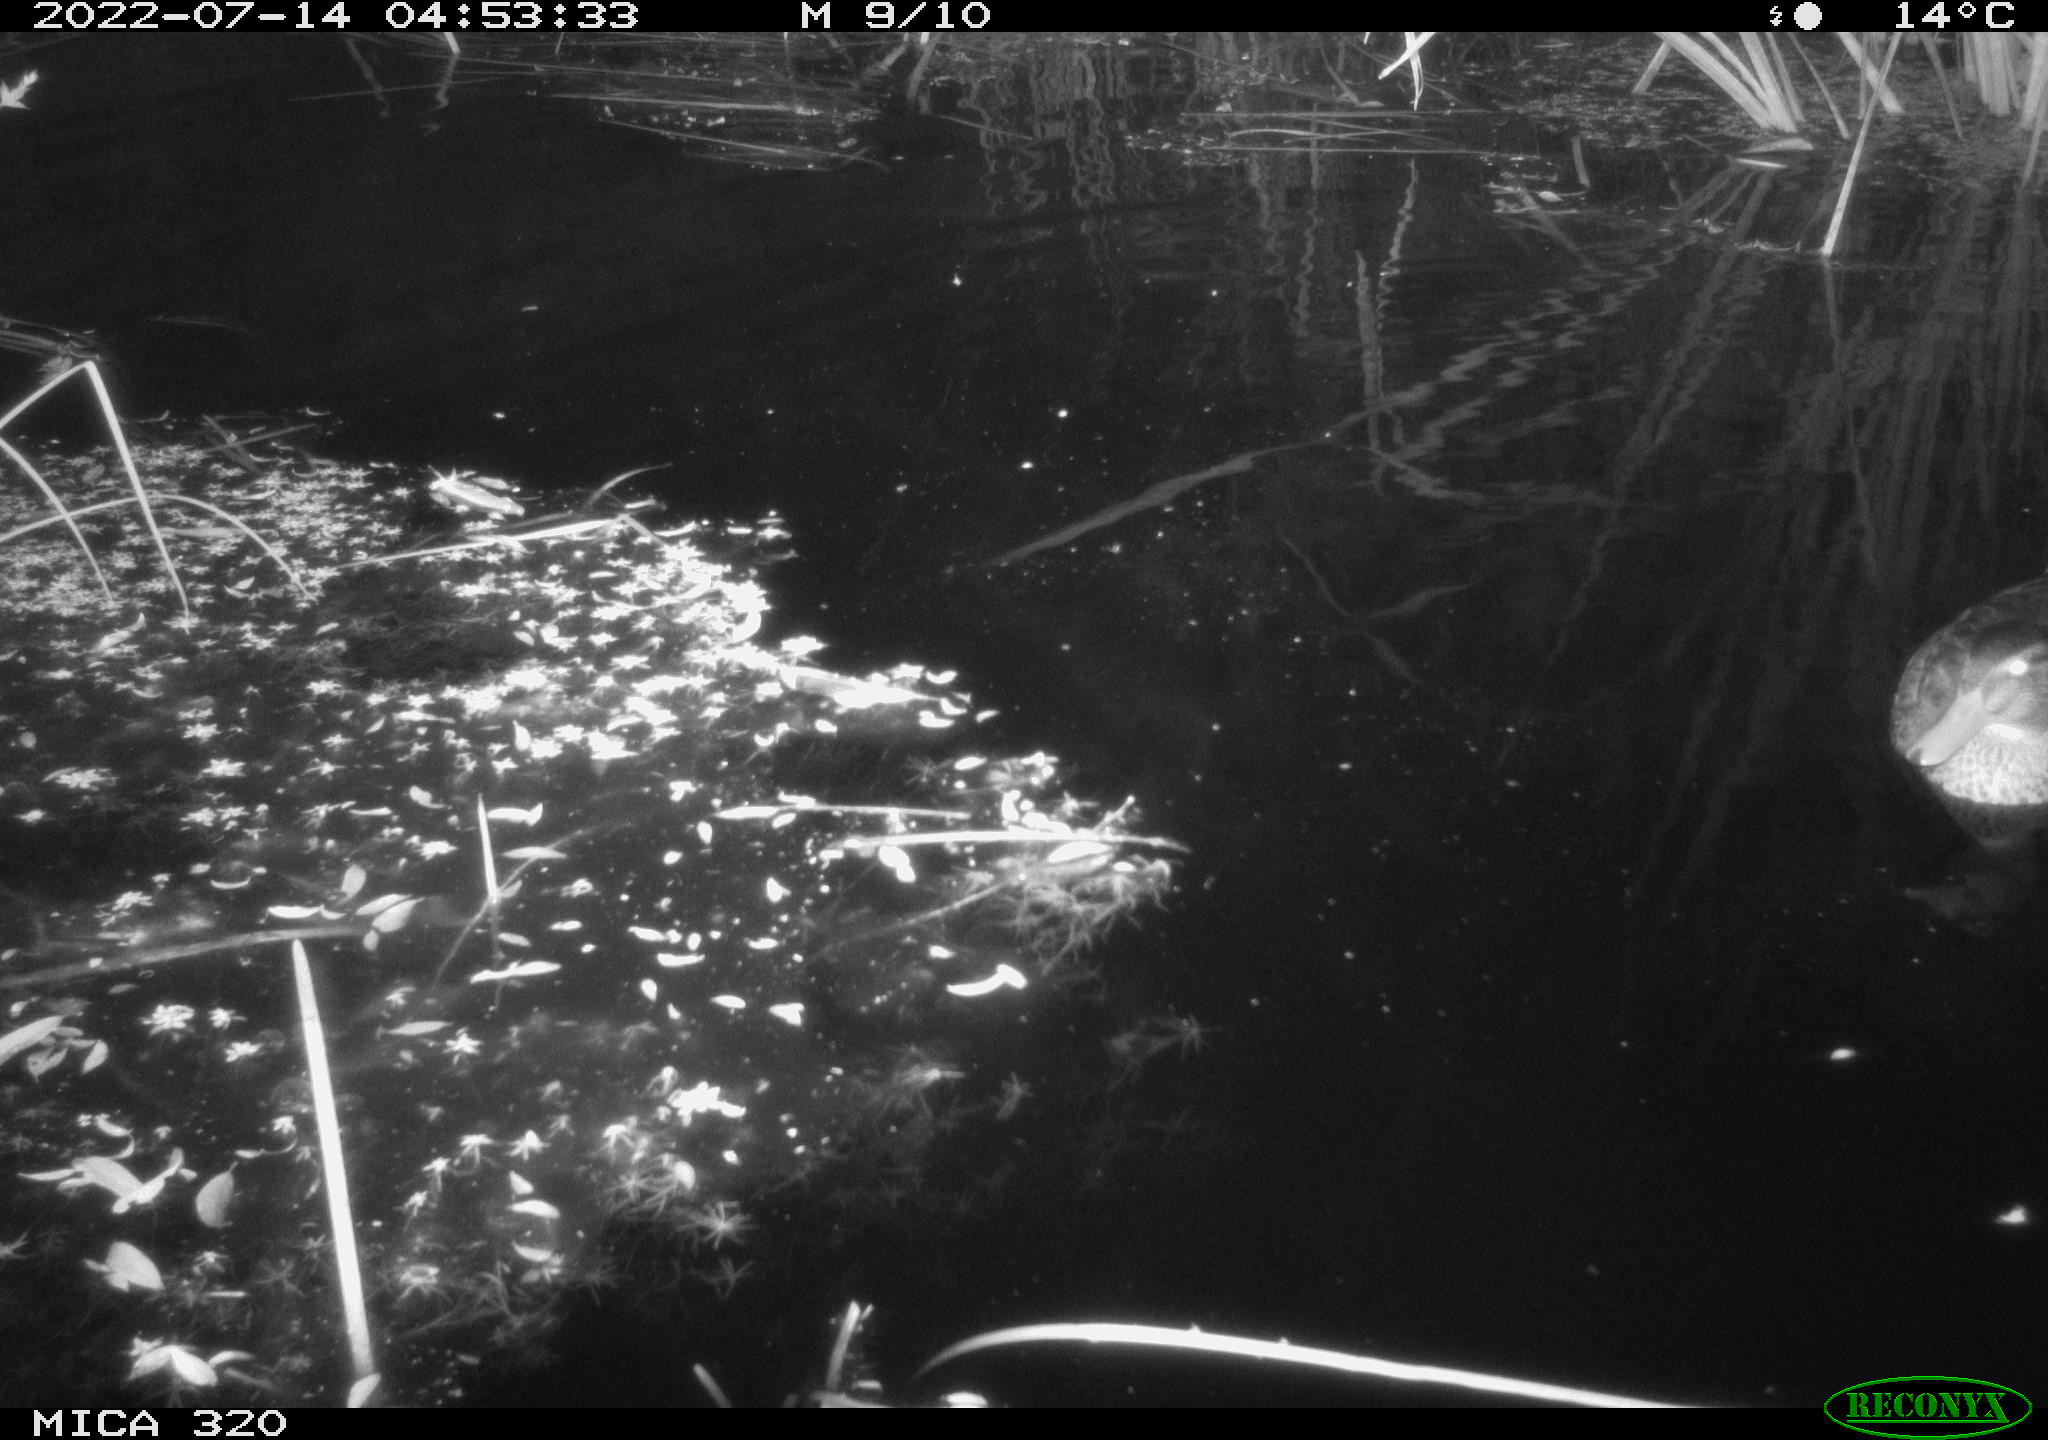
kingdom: Animalia
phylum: Chordata
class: Aves
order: Anseriformes
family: Anatidae
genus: Anas
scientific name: Anas platyrhynchos
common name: Mallard
